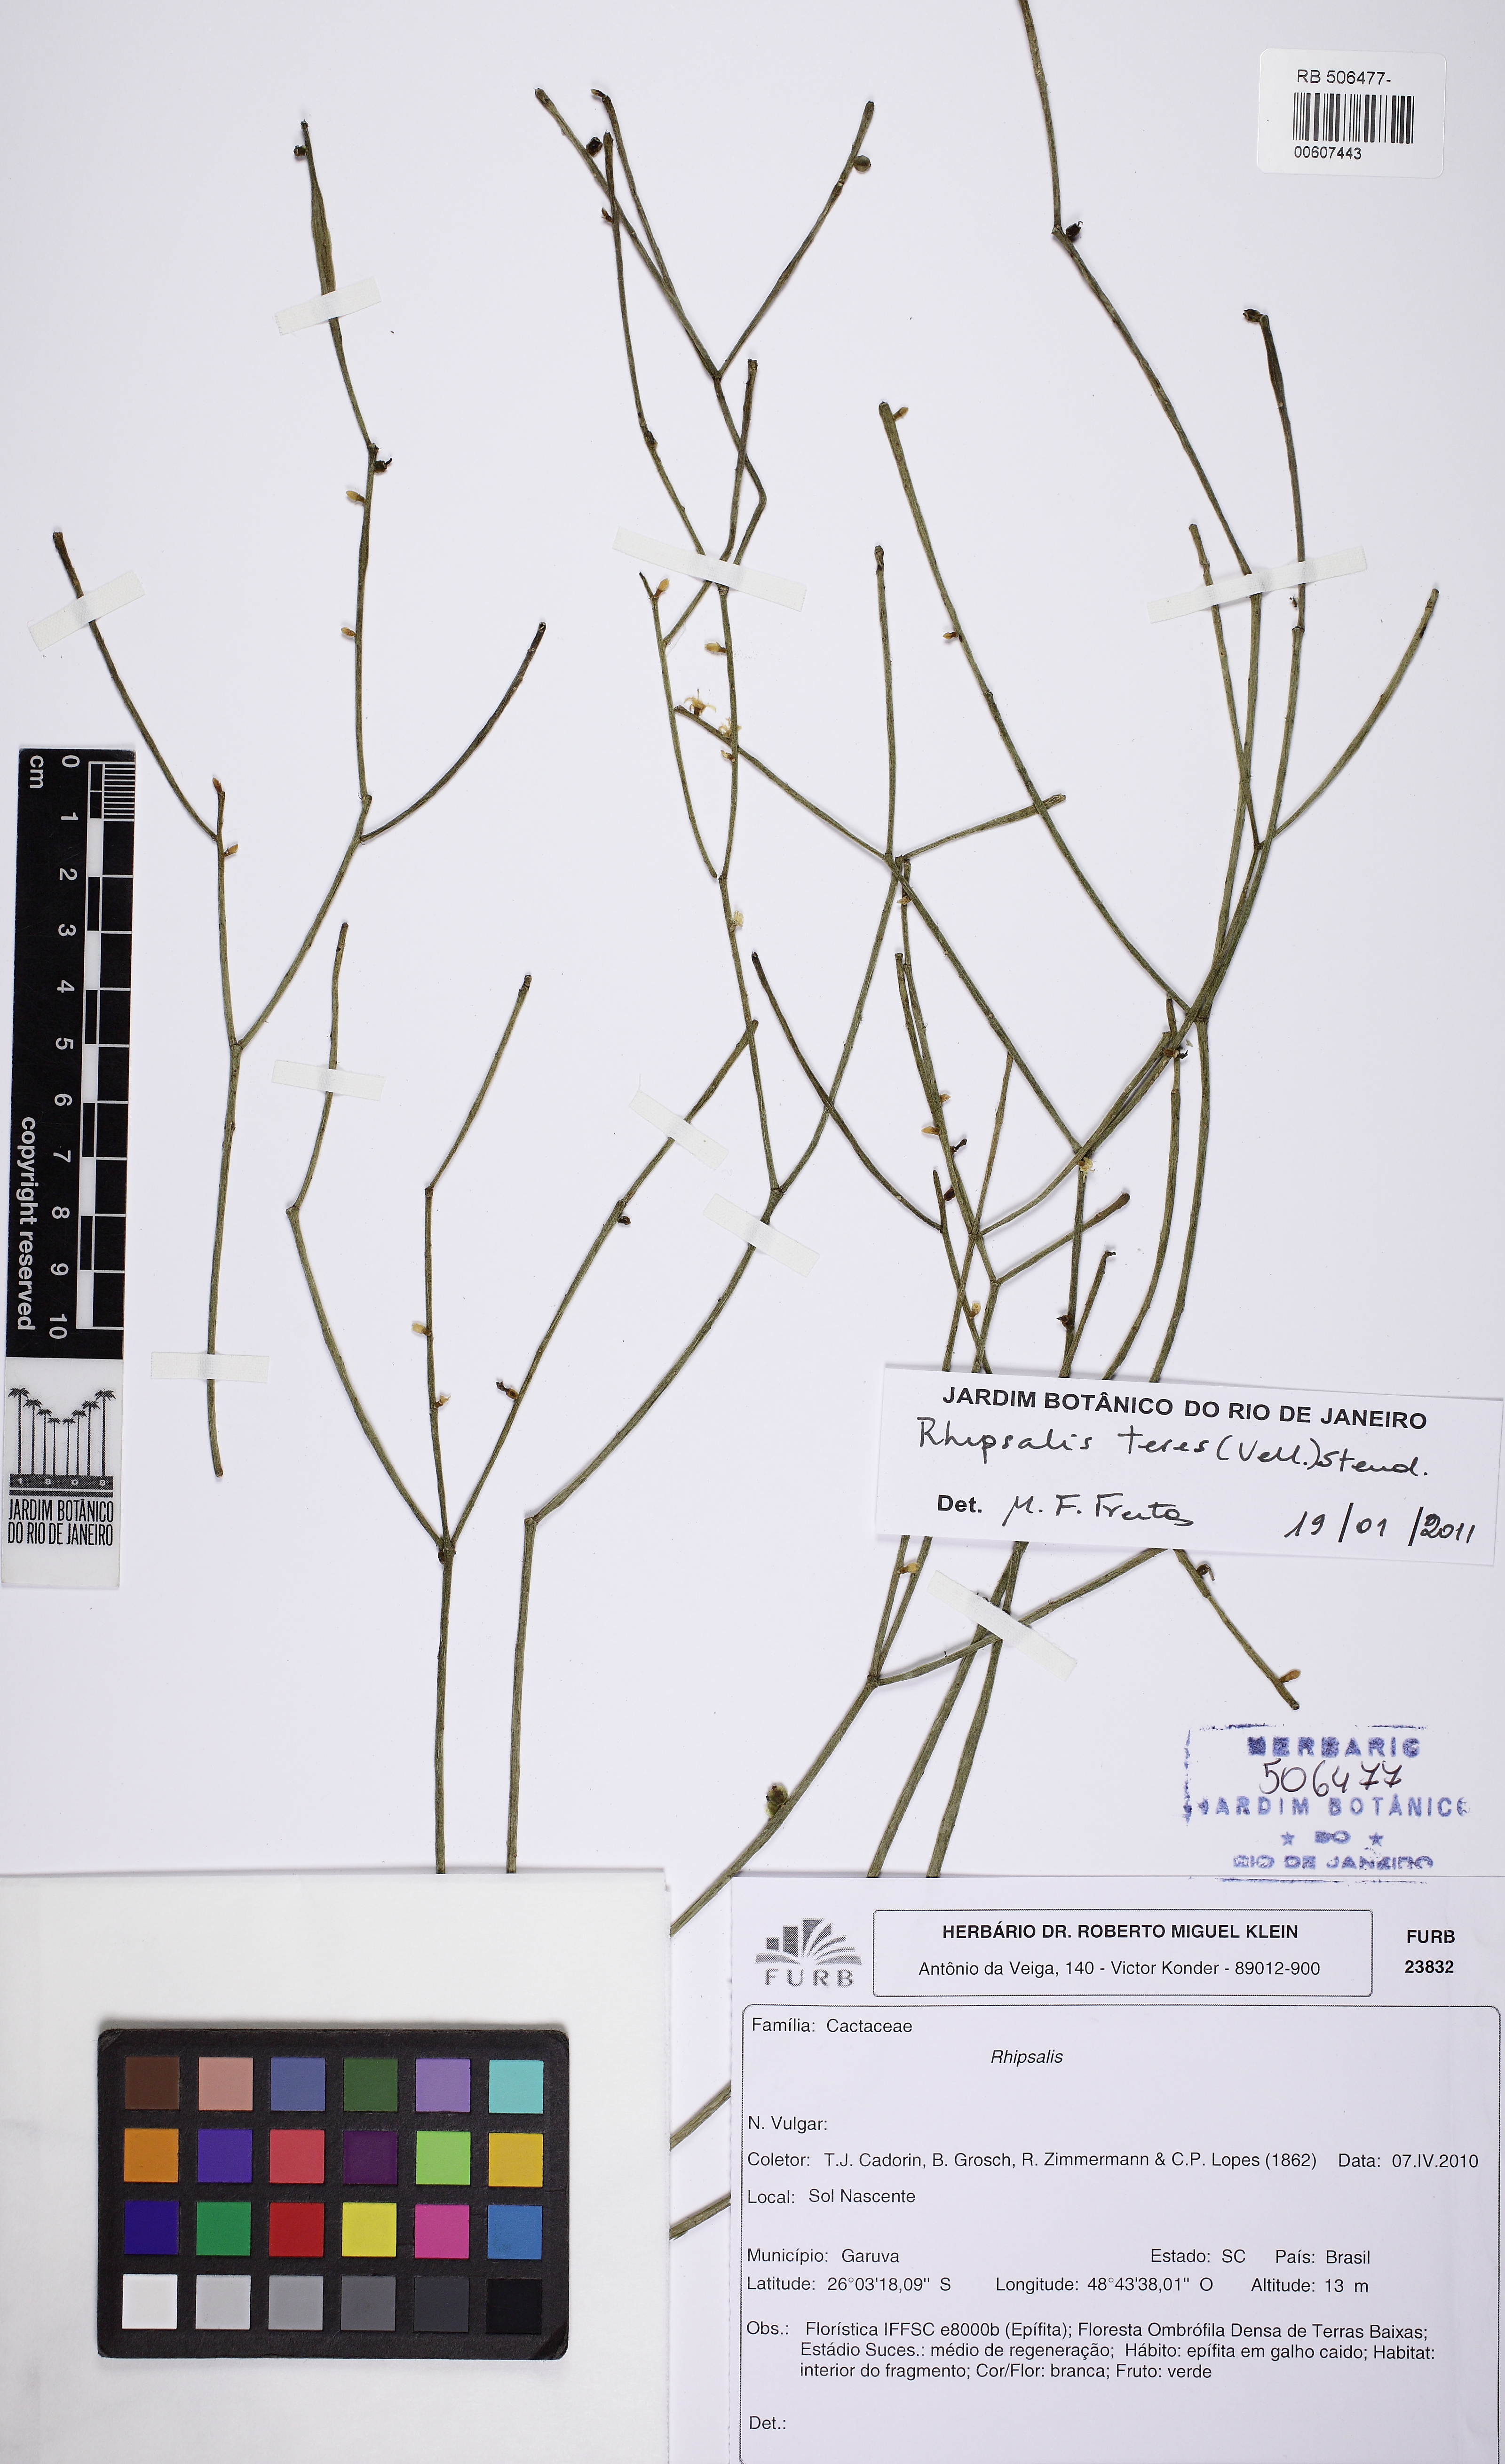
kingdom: Plantae
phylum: Tracheophyta
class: Magnoliopsida
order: Caryophyllales
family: Cactaceae
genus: Rhipsalis
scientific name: Rhipsalis teres
